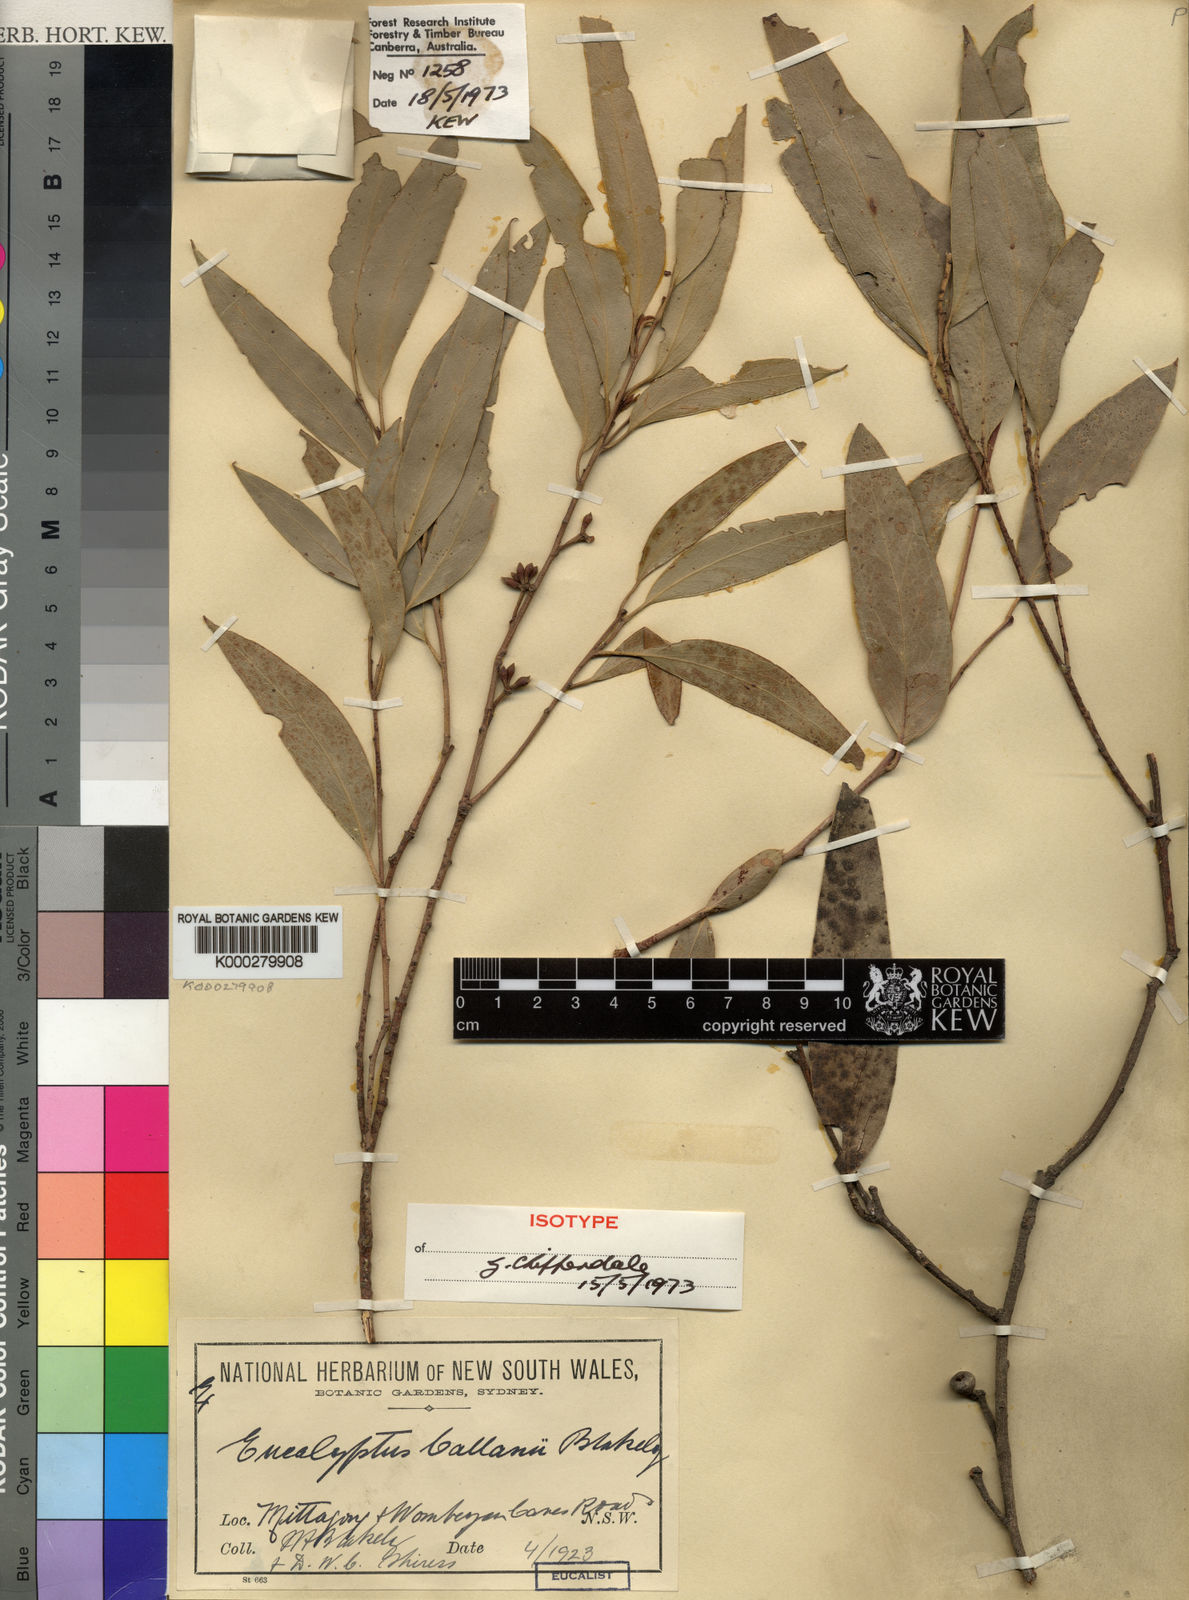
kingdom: Plantae
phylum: Tracheophyta
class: Magnoliopsida
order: Myrtales
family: Myrtaceae
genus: Eucalyptus
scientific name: Eucalyptus callanii
